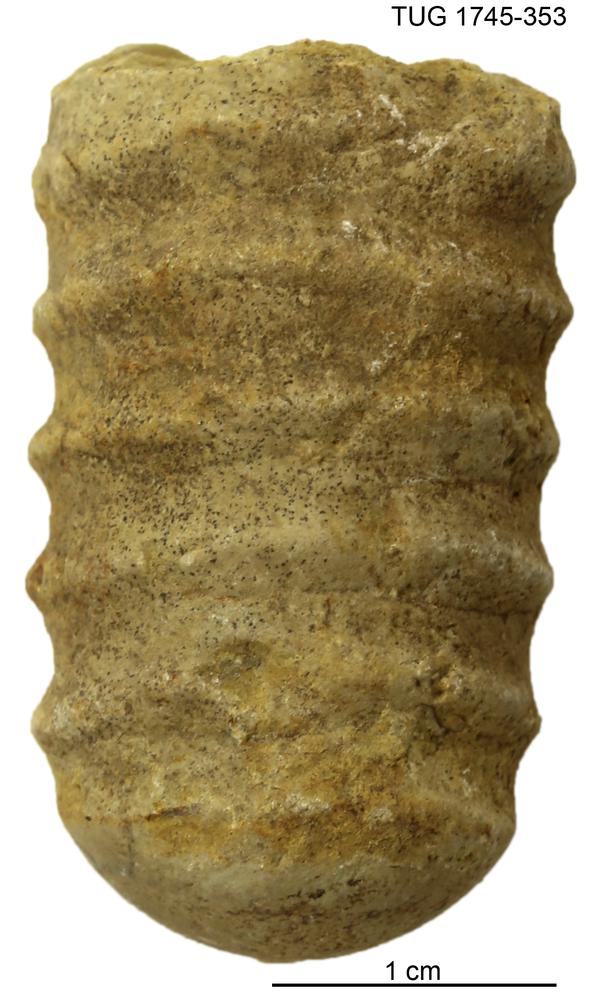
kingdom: Animalia
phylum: Mollusca
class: Cephalopoda
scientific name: Cephalopoda
